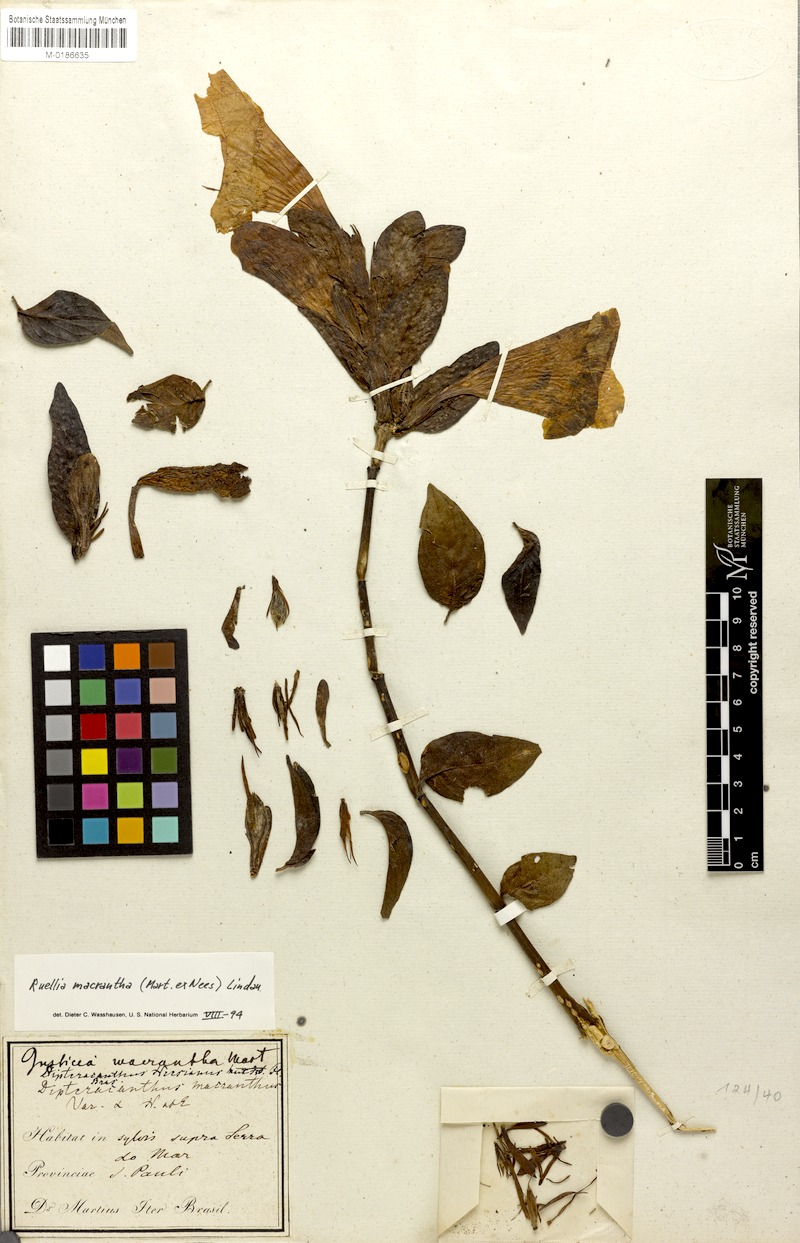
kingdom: Plantae
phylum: Tracheophyta
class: Magnoliopsida
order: Lamiales
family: Acanthaceae
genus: Ruellia
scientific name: Ruellia macrantha
